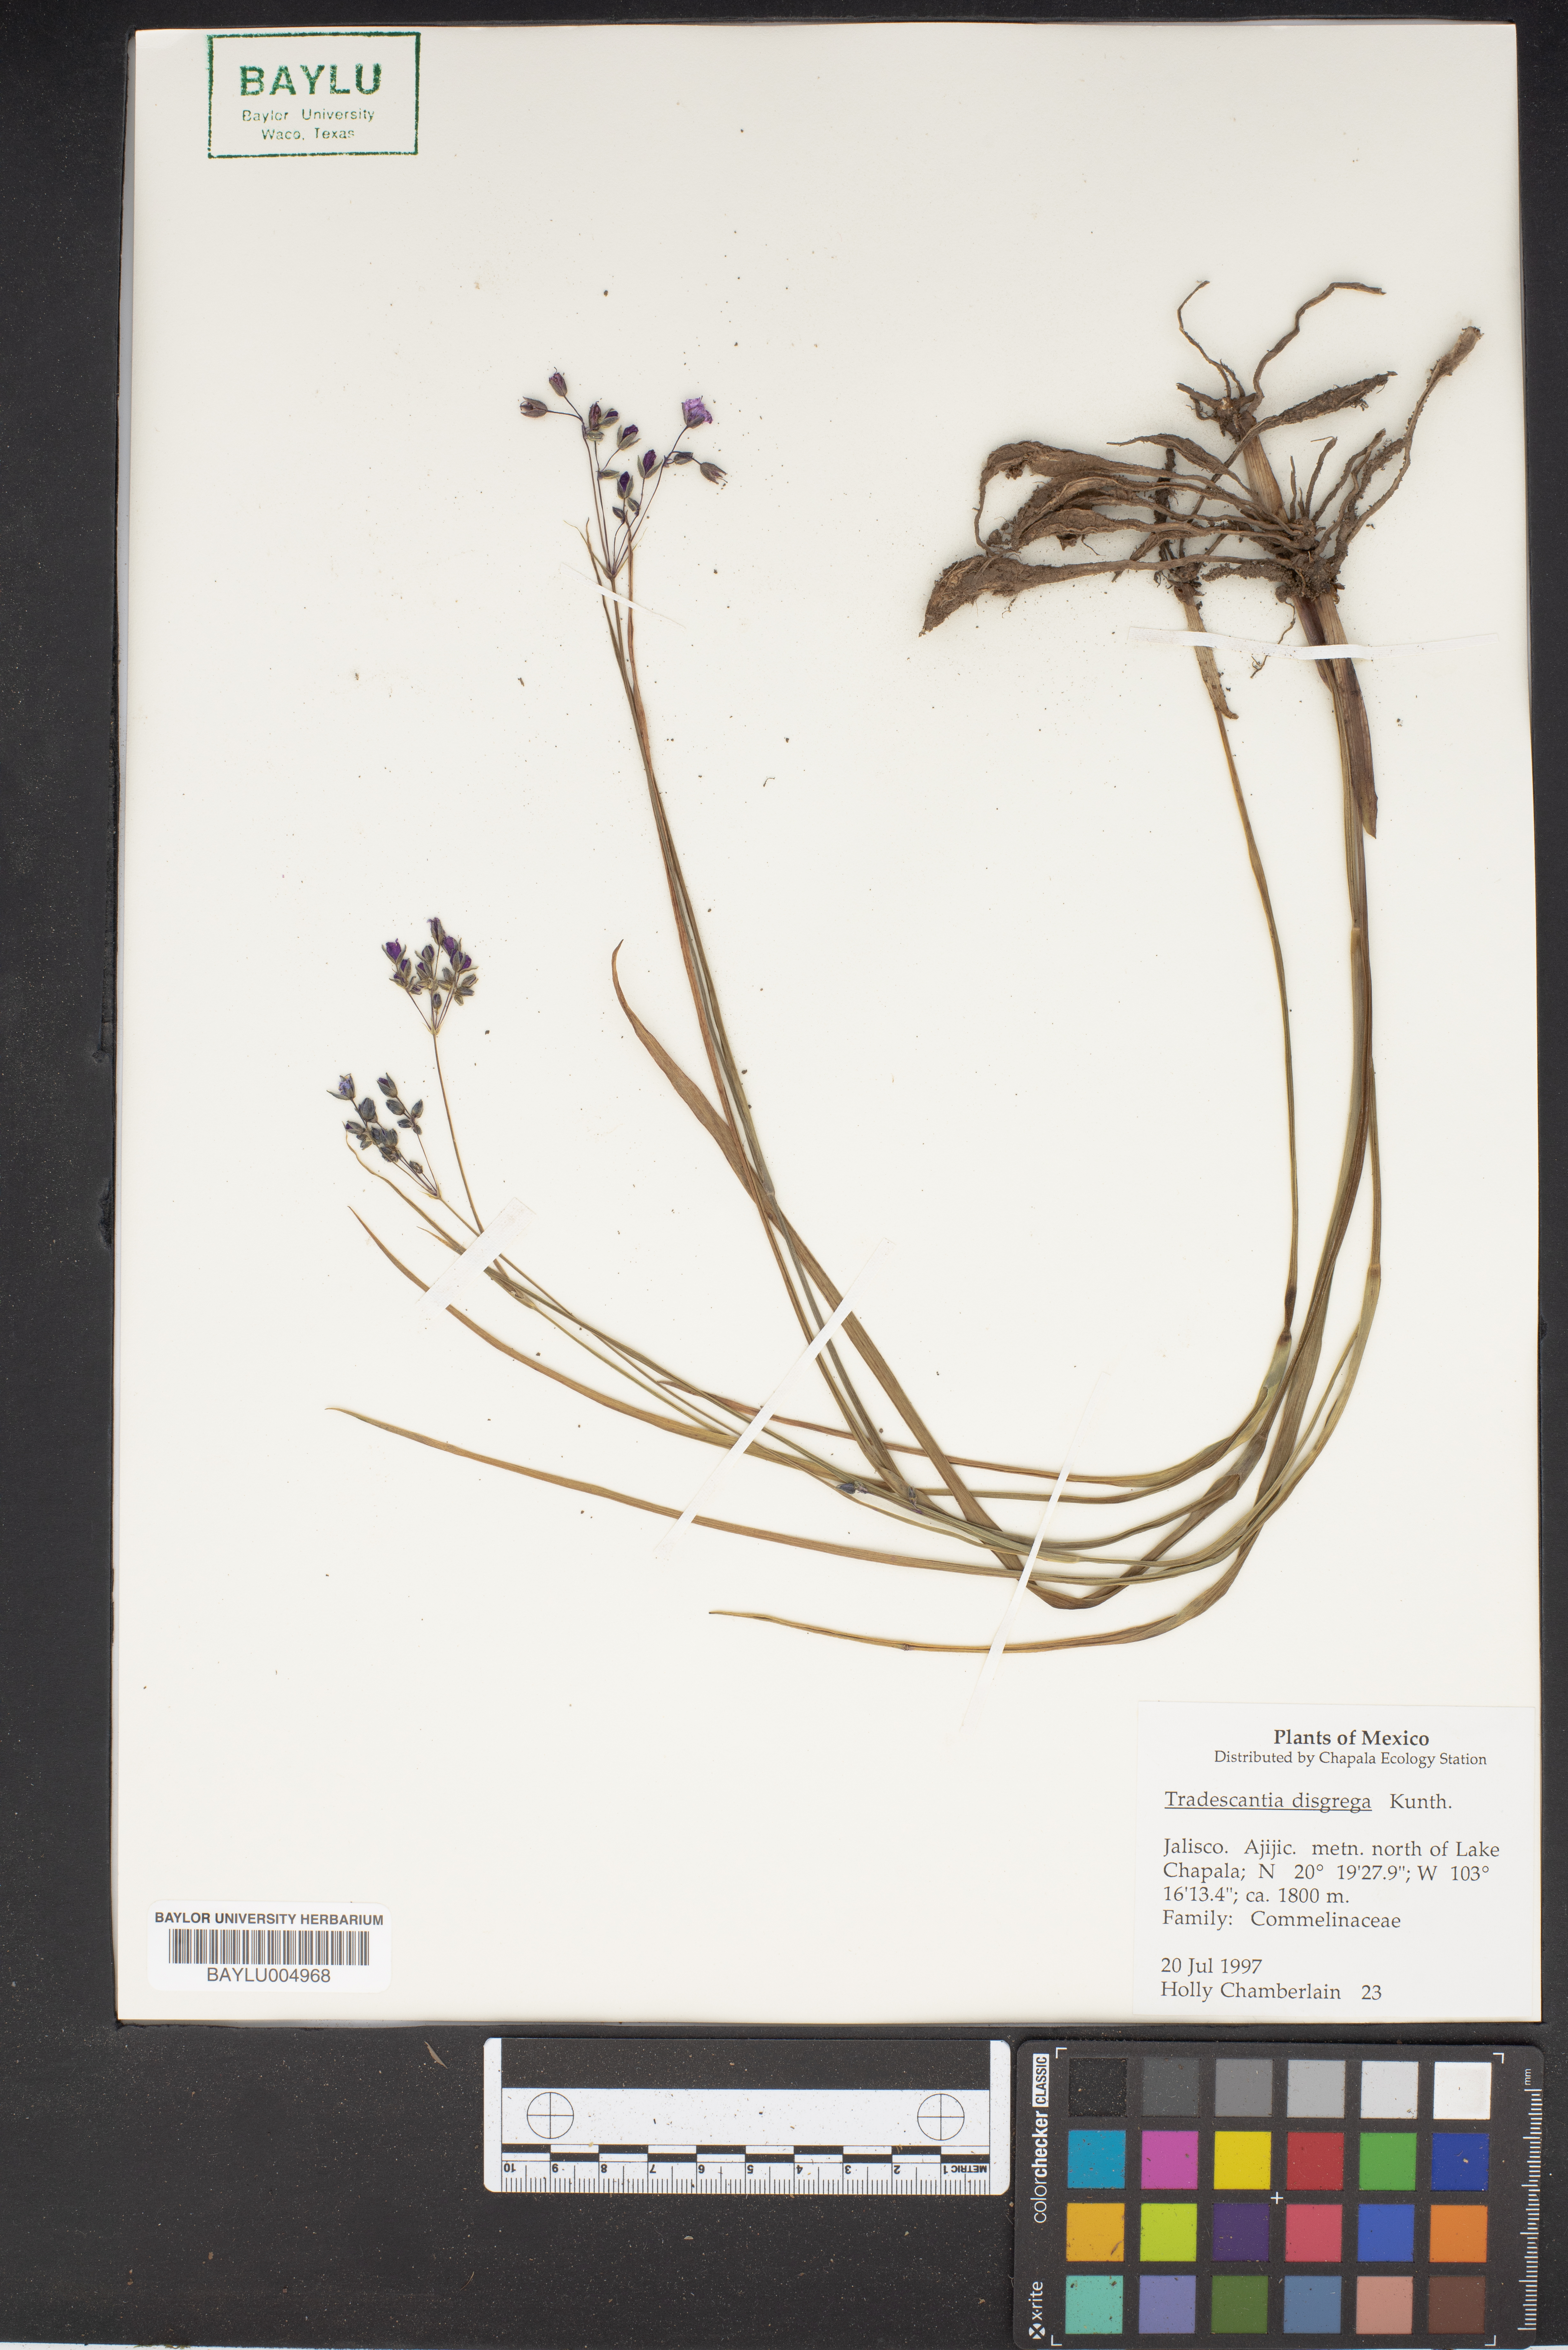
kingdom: Plantae
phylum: Tracheophyta
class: Liliopsida
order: Commelinales
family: Commelinaceae
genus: Callisia
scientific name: Callisia disgrega
